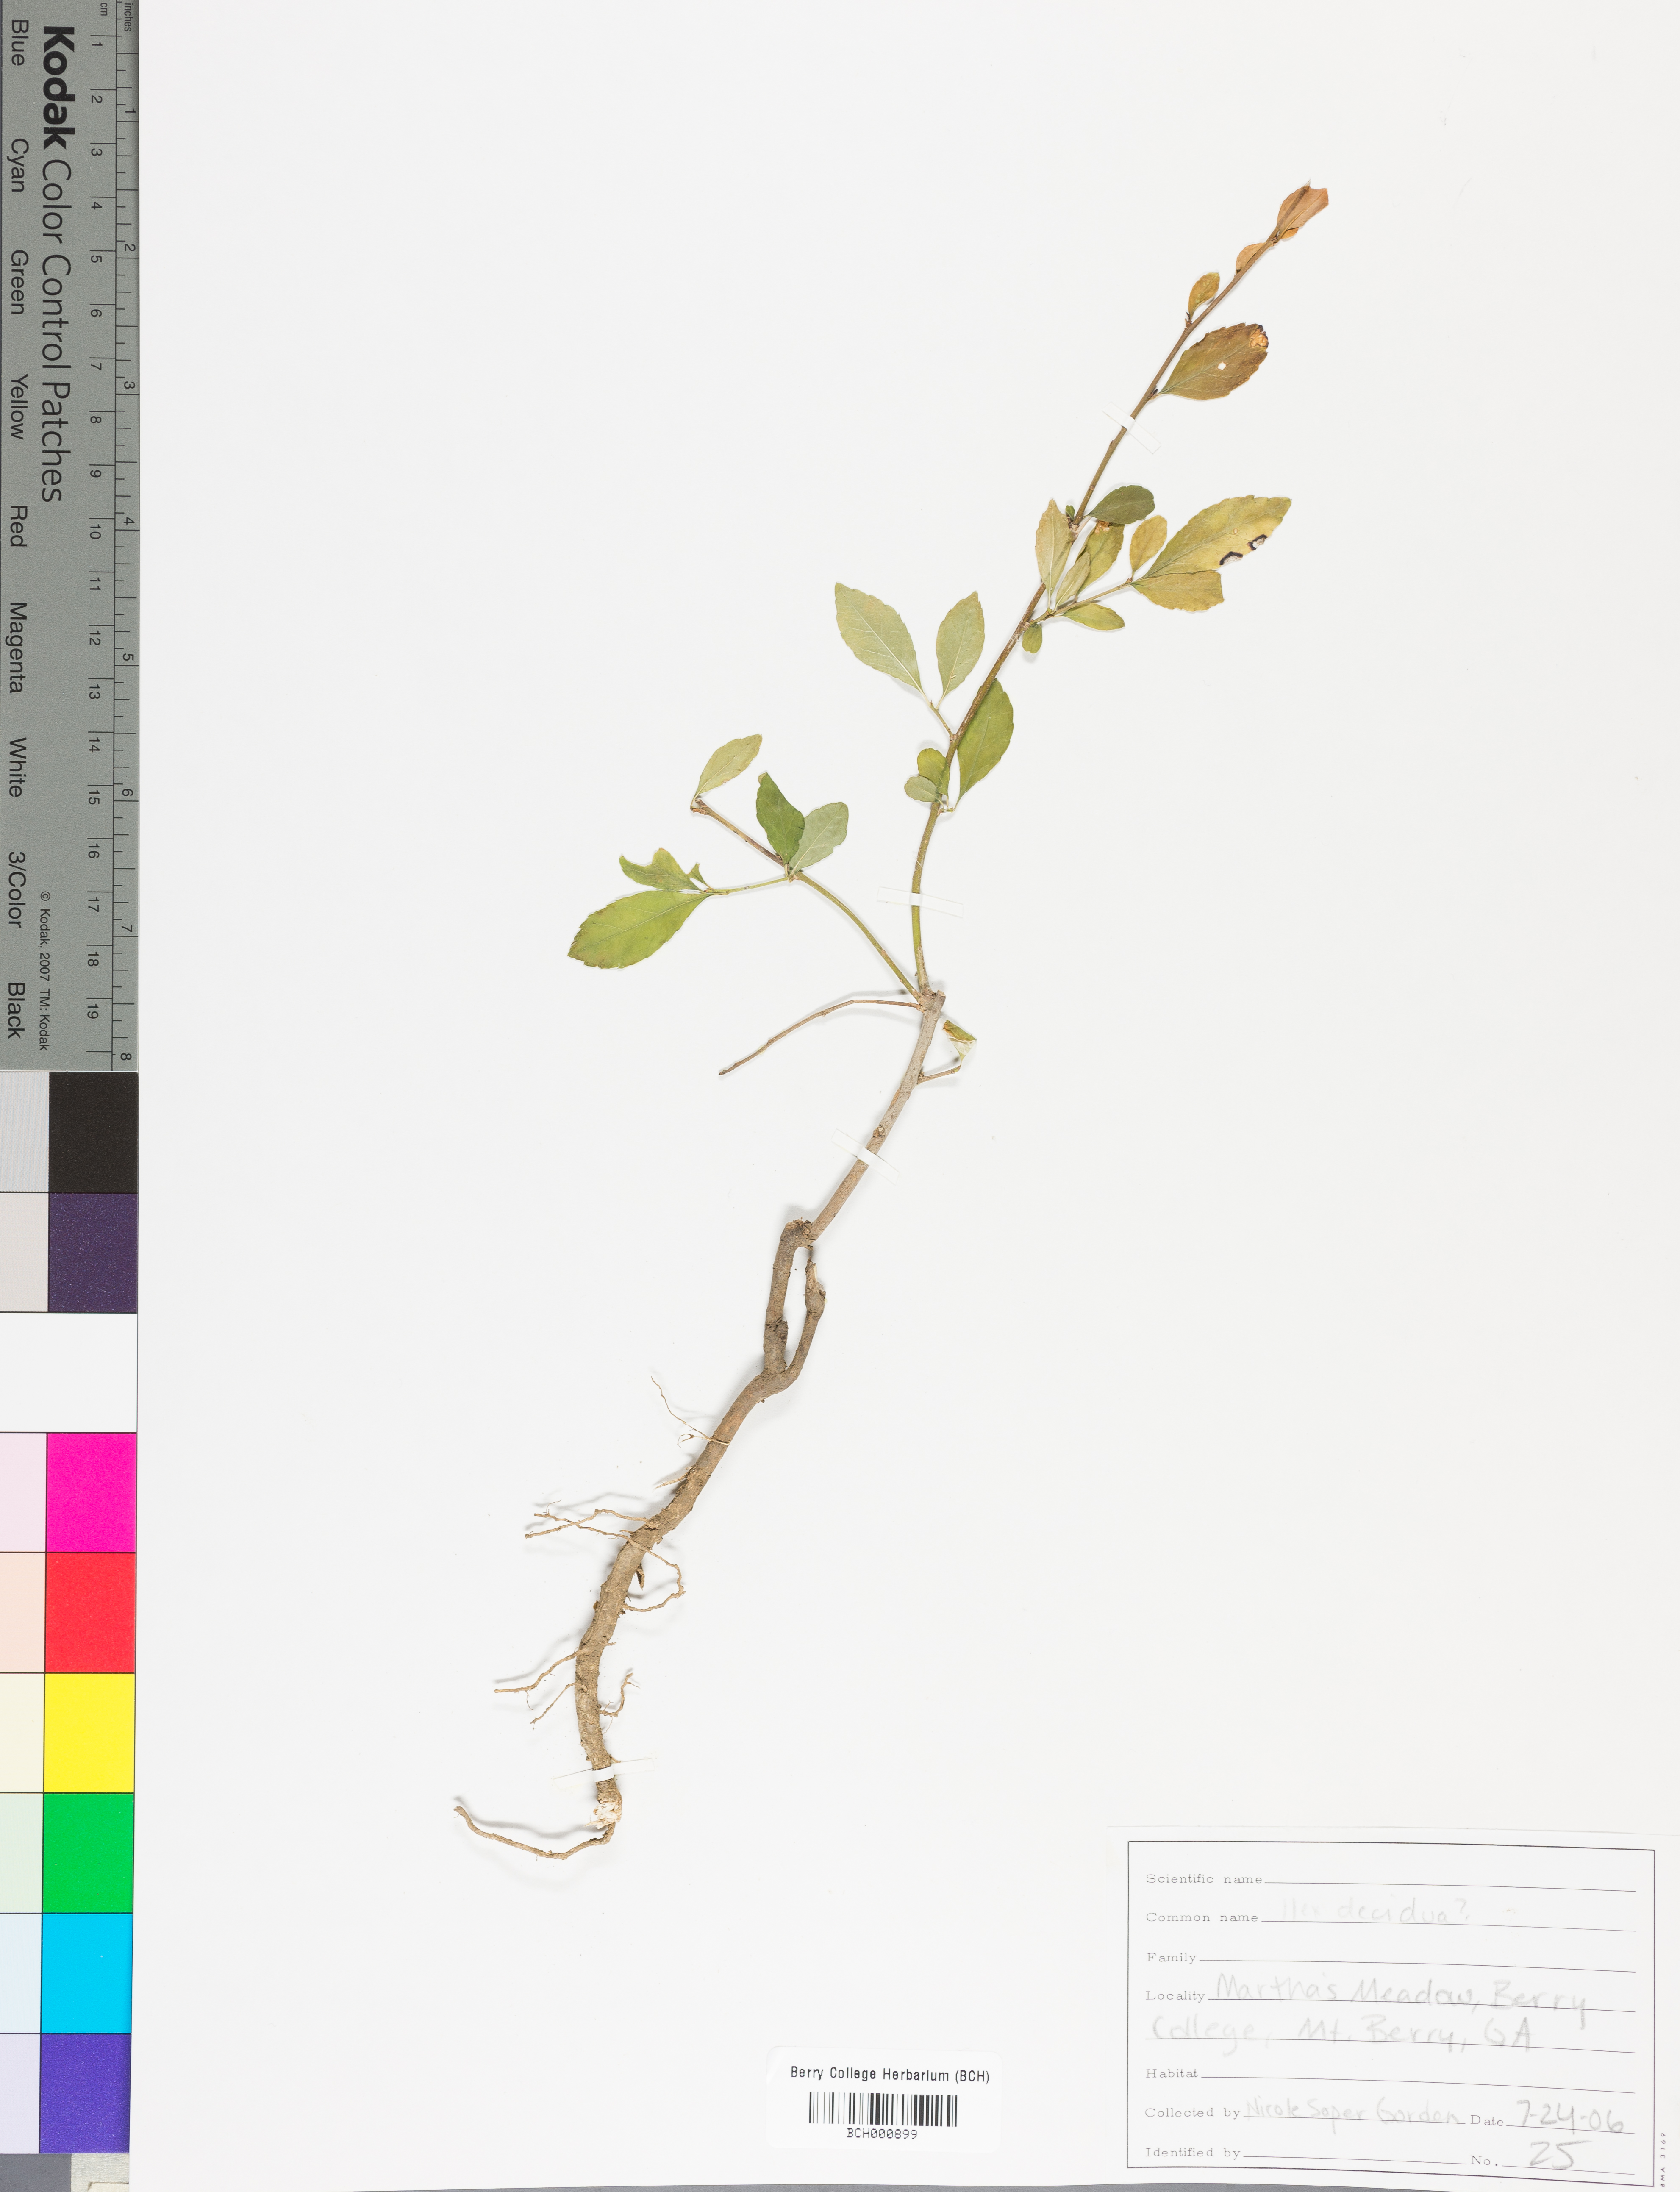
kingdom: Plantae
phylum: Tracheophyta
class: Magnoliopsida
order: Lamiales
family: Acanthaceae
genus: Adhatoda
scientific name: Adhatoda
